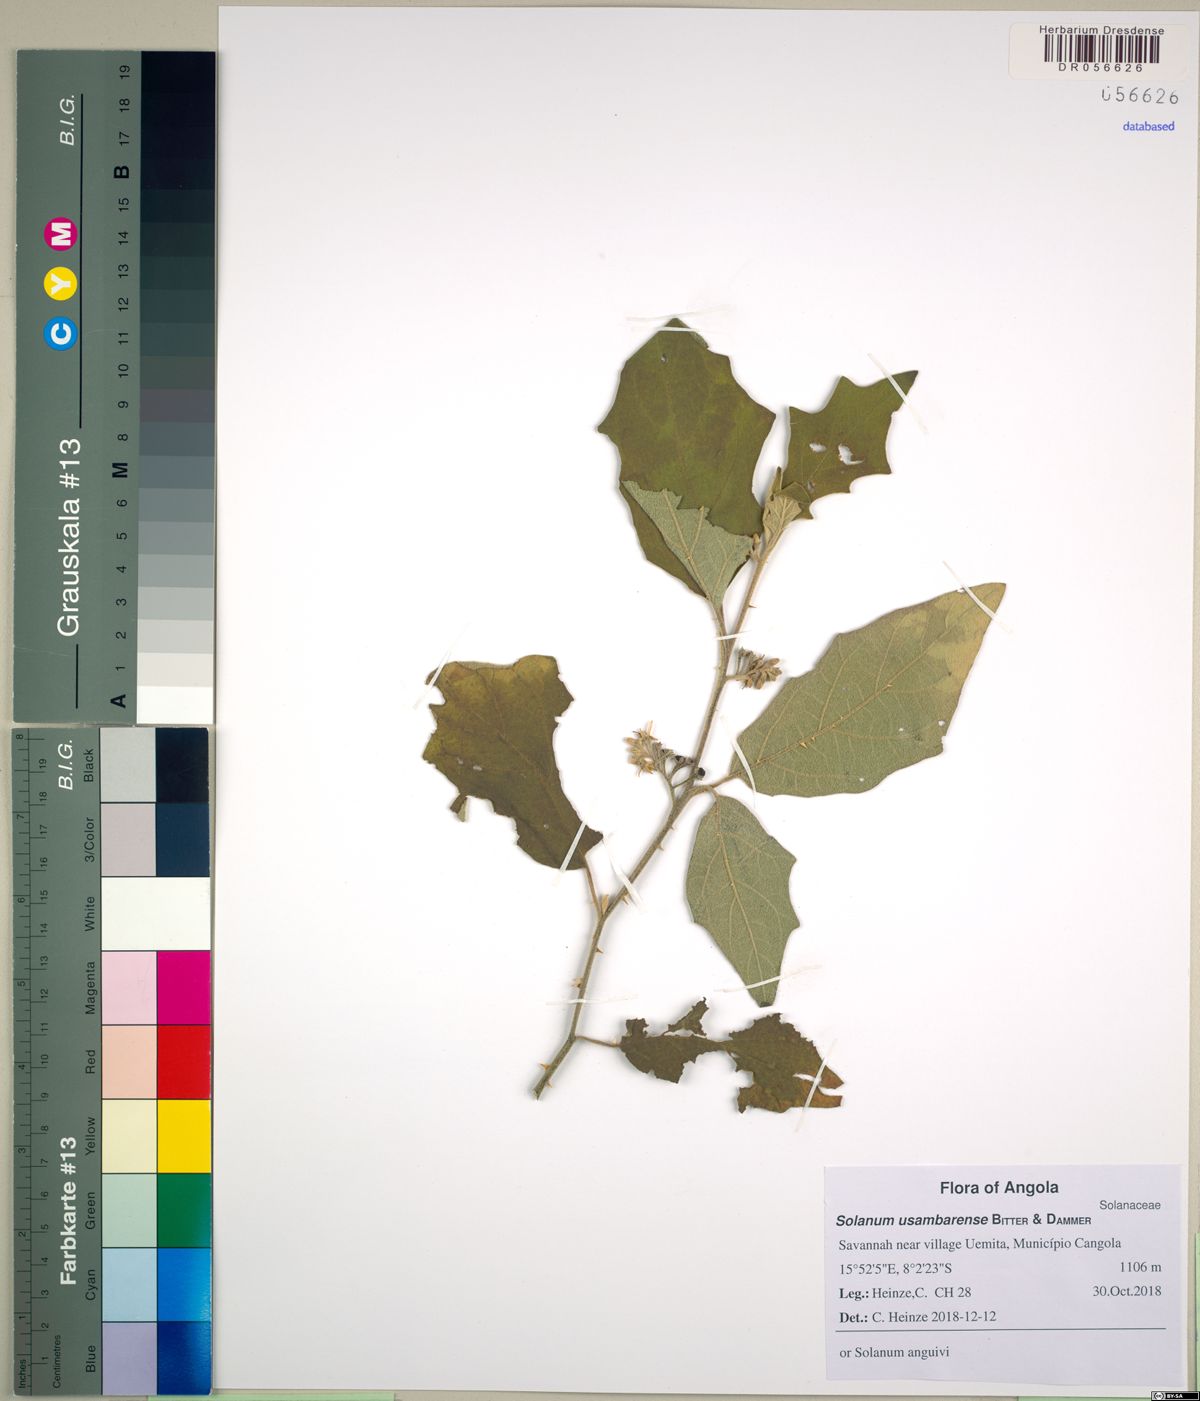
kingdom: Plantae
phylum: Tracheophyta
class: Magnoliopsida
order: Solanales
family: Solanaceae
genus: Solanum
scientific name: Solanum anguivi
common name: Forest bitterberry
